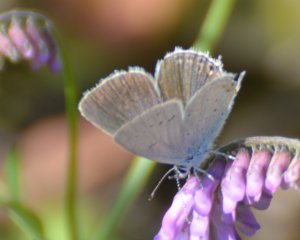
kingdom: Animalia
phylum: Arthropoda
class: Insecta
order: Lepidoptera
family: Lycaenidae
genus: Elkalyce
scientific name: Elkalyce amyntula
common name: Western Tailed-Blue
